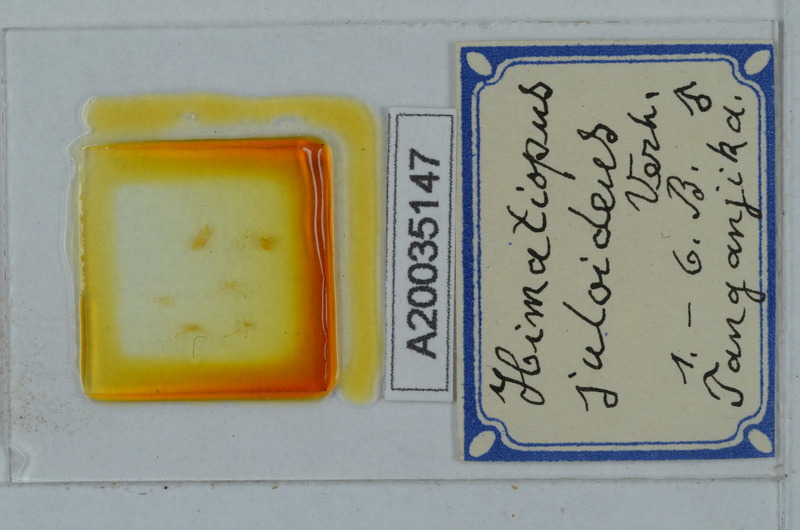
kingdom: Animalia
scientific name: Animalia
